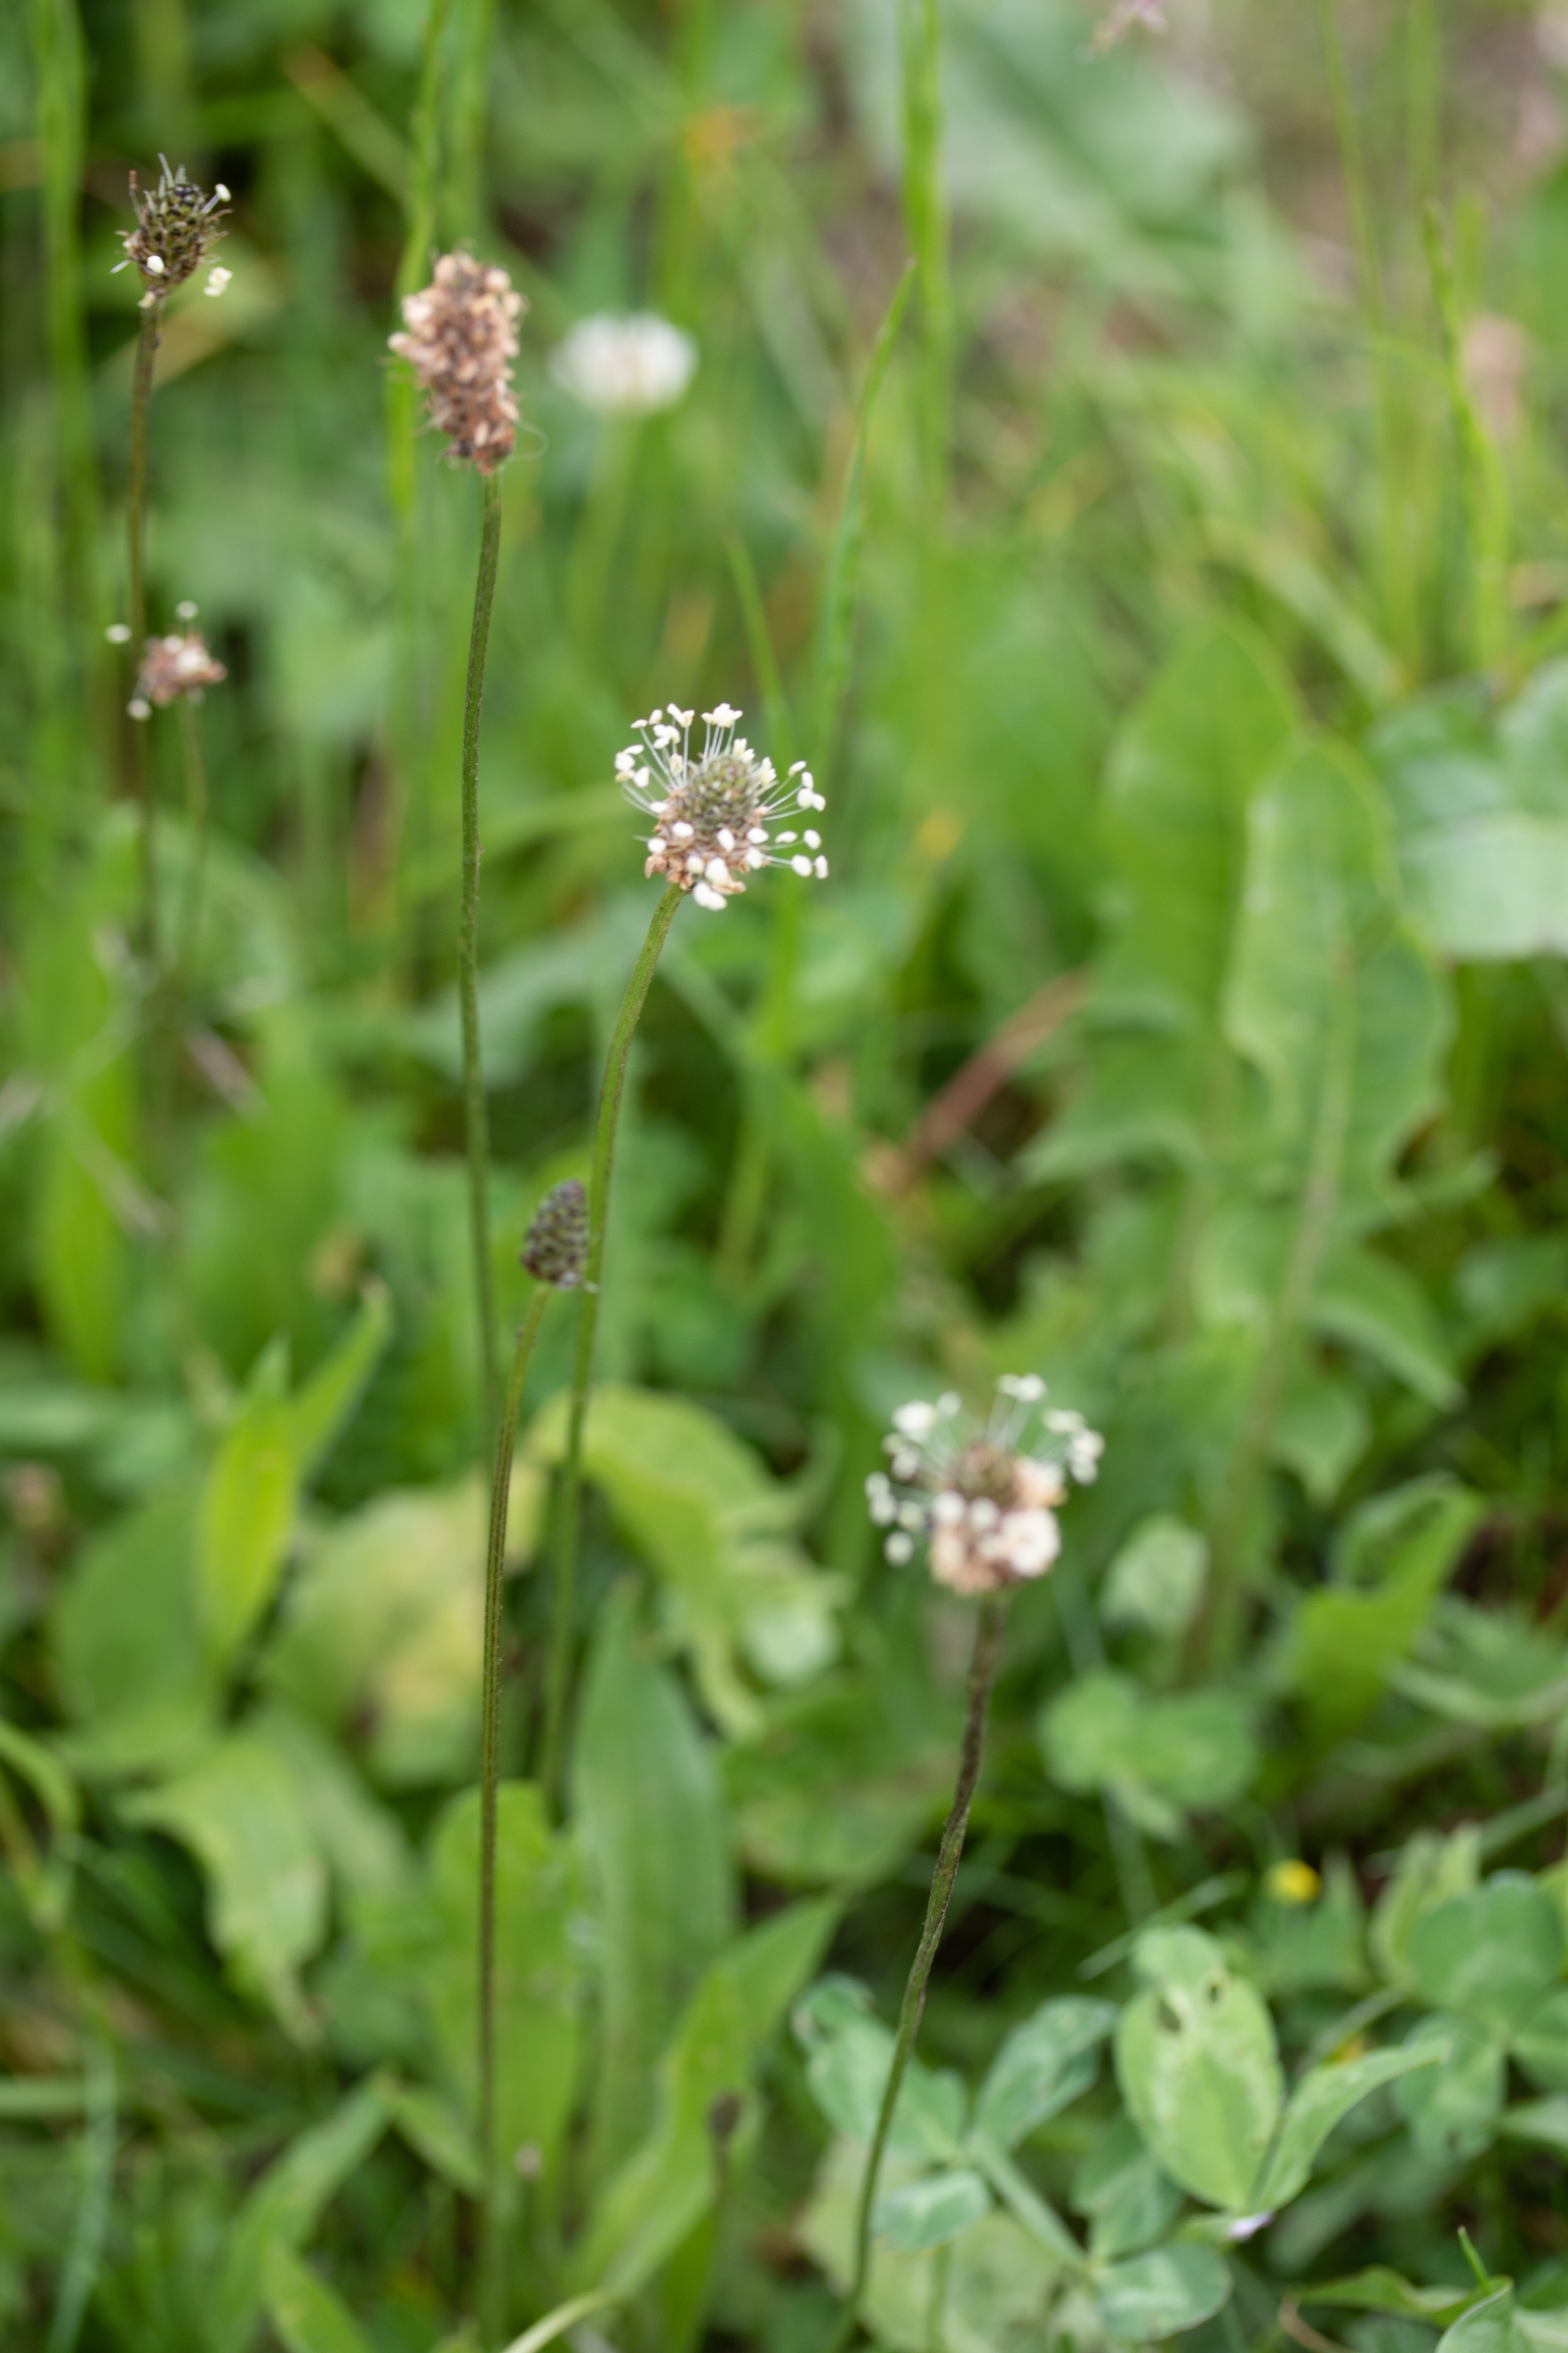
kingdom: Plantae
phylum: Tracheophyta
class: Magnoliopsida
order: Lamiales
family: Plantaginaceae
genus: Plantago
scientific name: Plantago lanceolata
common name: Lancet-vejbred
